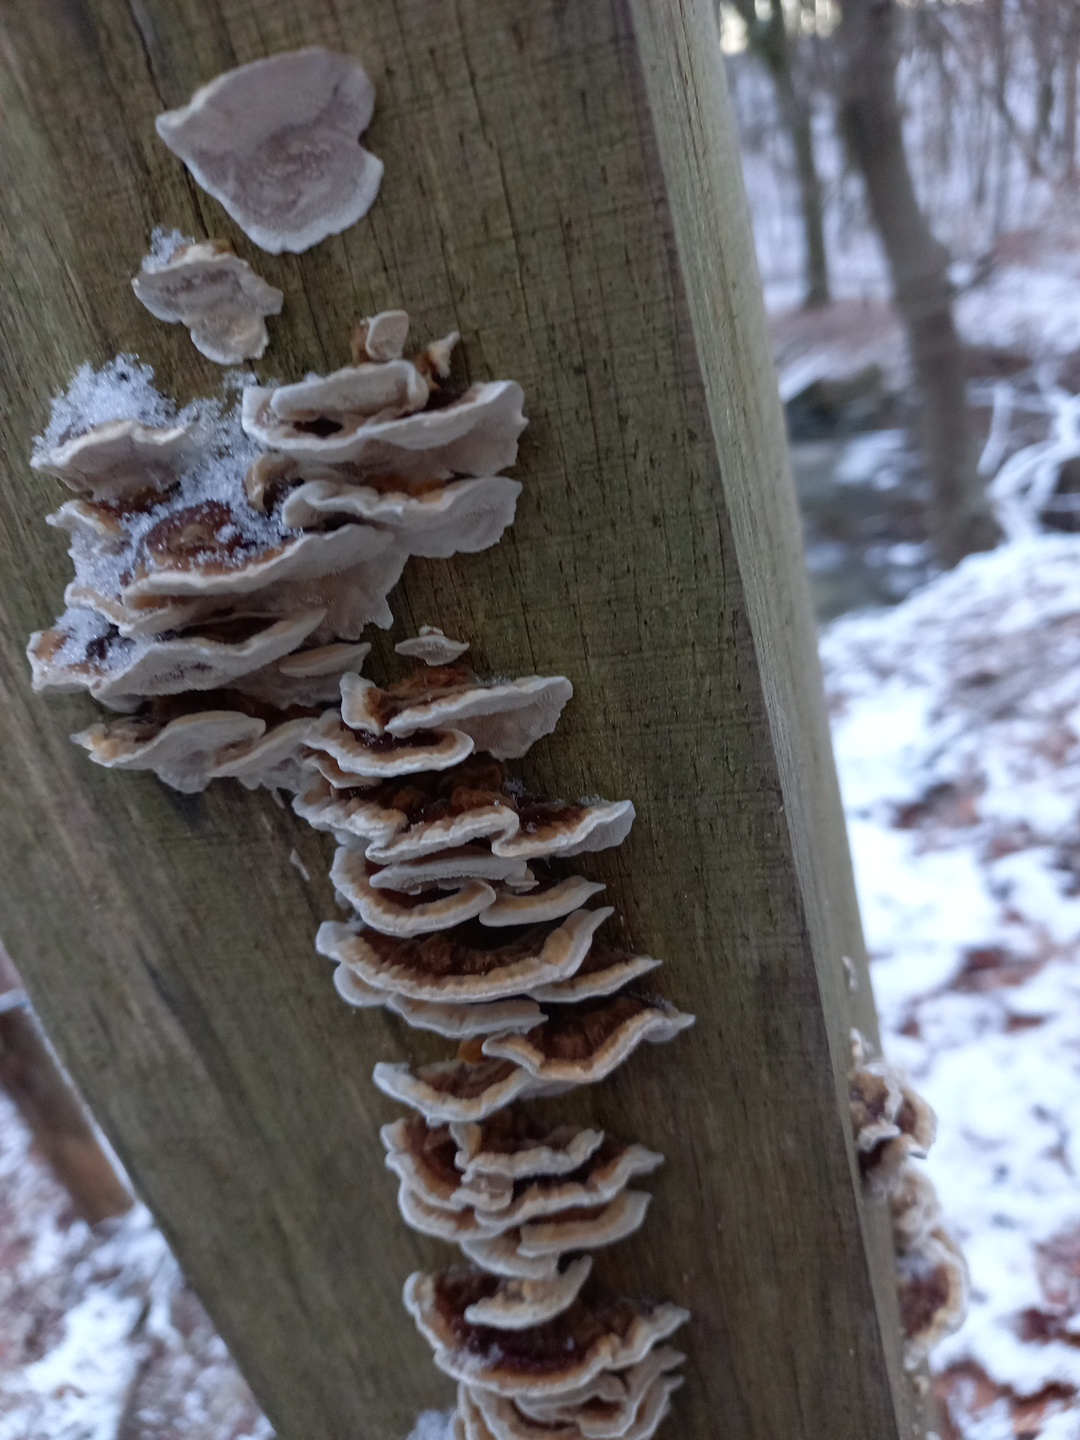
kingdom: Fungi
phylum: Basidiomycota
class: Agaricomycetes
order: Polyporales
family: Polyporaceae
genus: Trametes
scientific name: Trametes versicolor
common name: broget læderporesvamp
